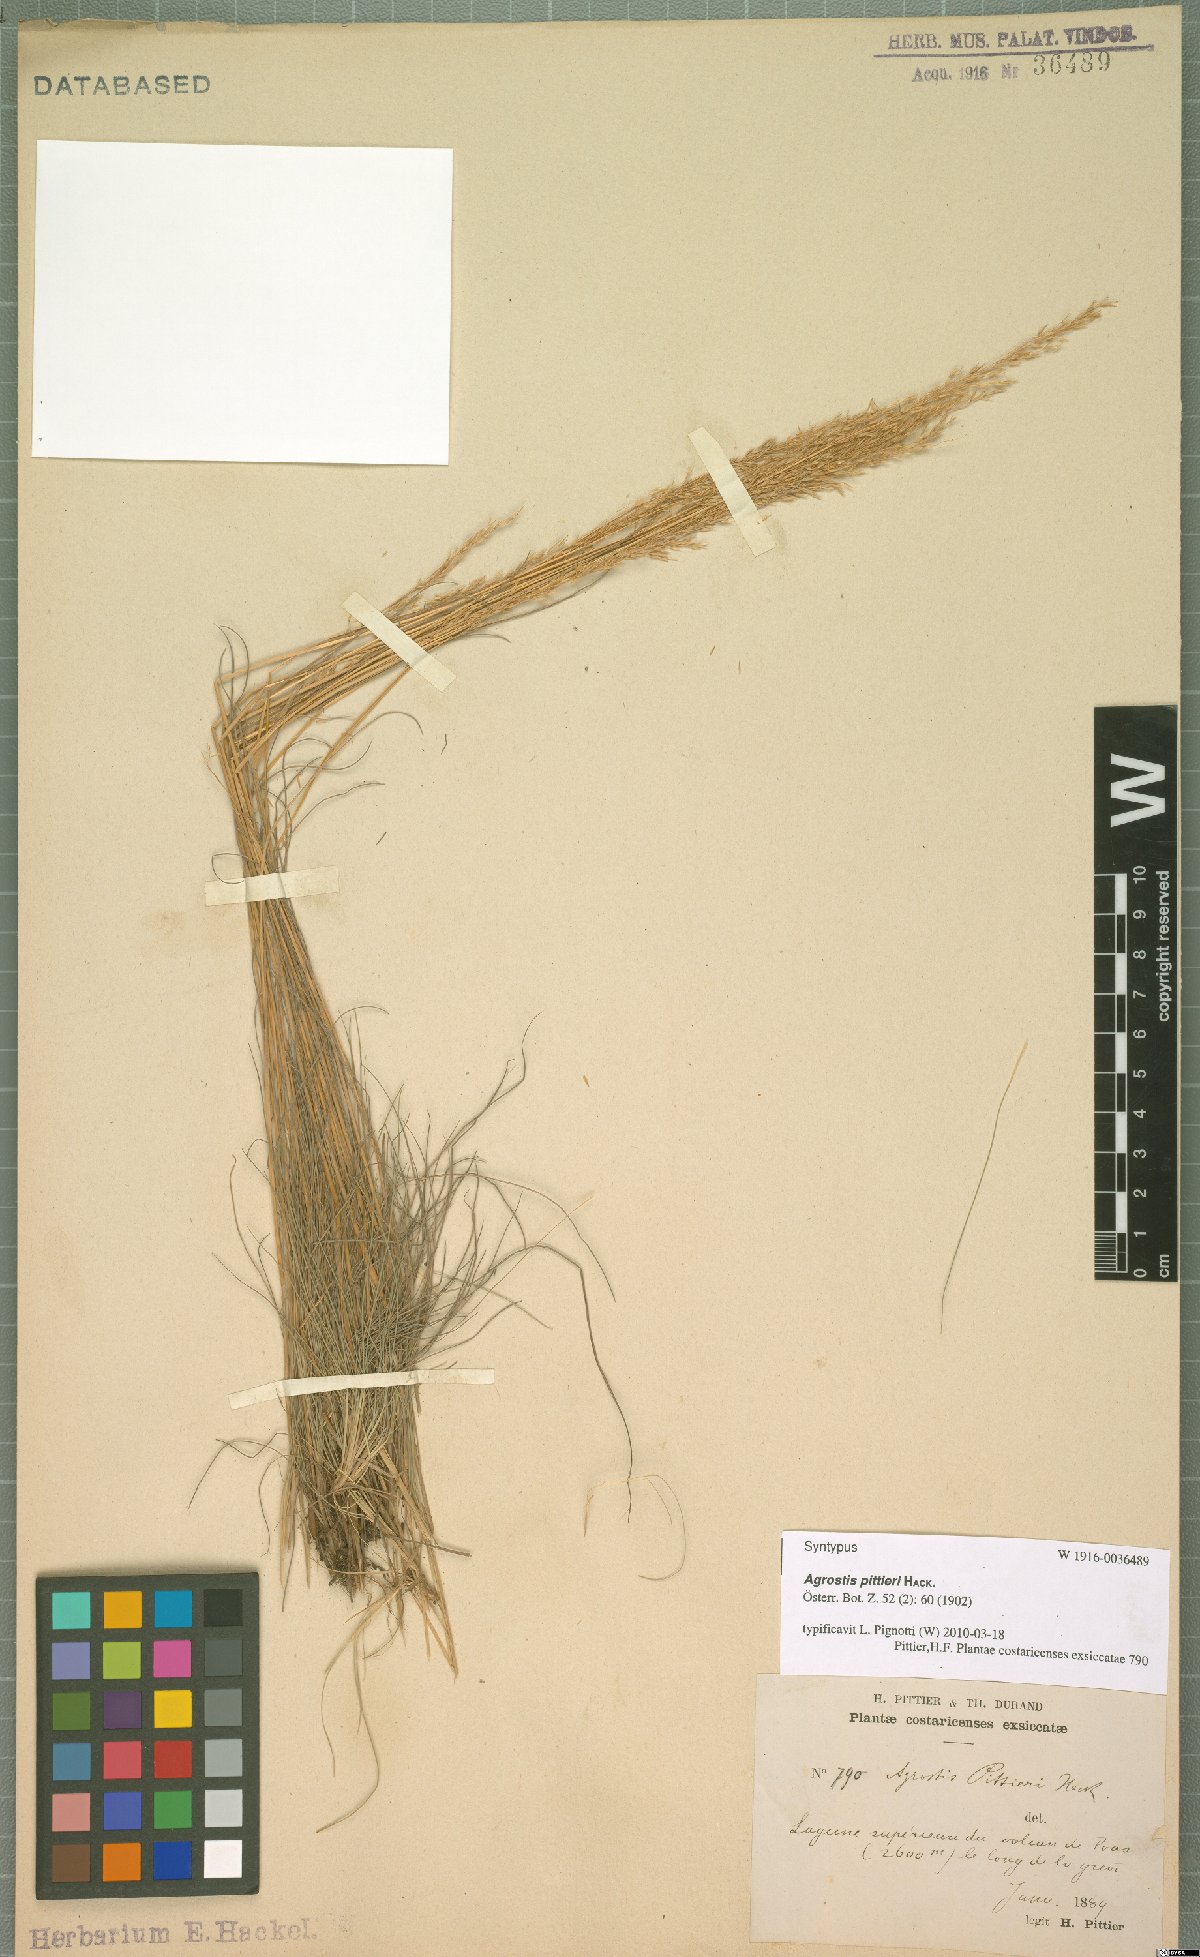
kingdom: Plantae
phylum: Tracheophyta
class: Liliopsida
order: Poales
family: Poaceae
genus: Agrostis
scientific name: Agrostis pittieri
